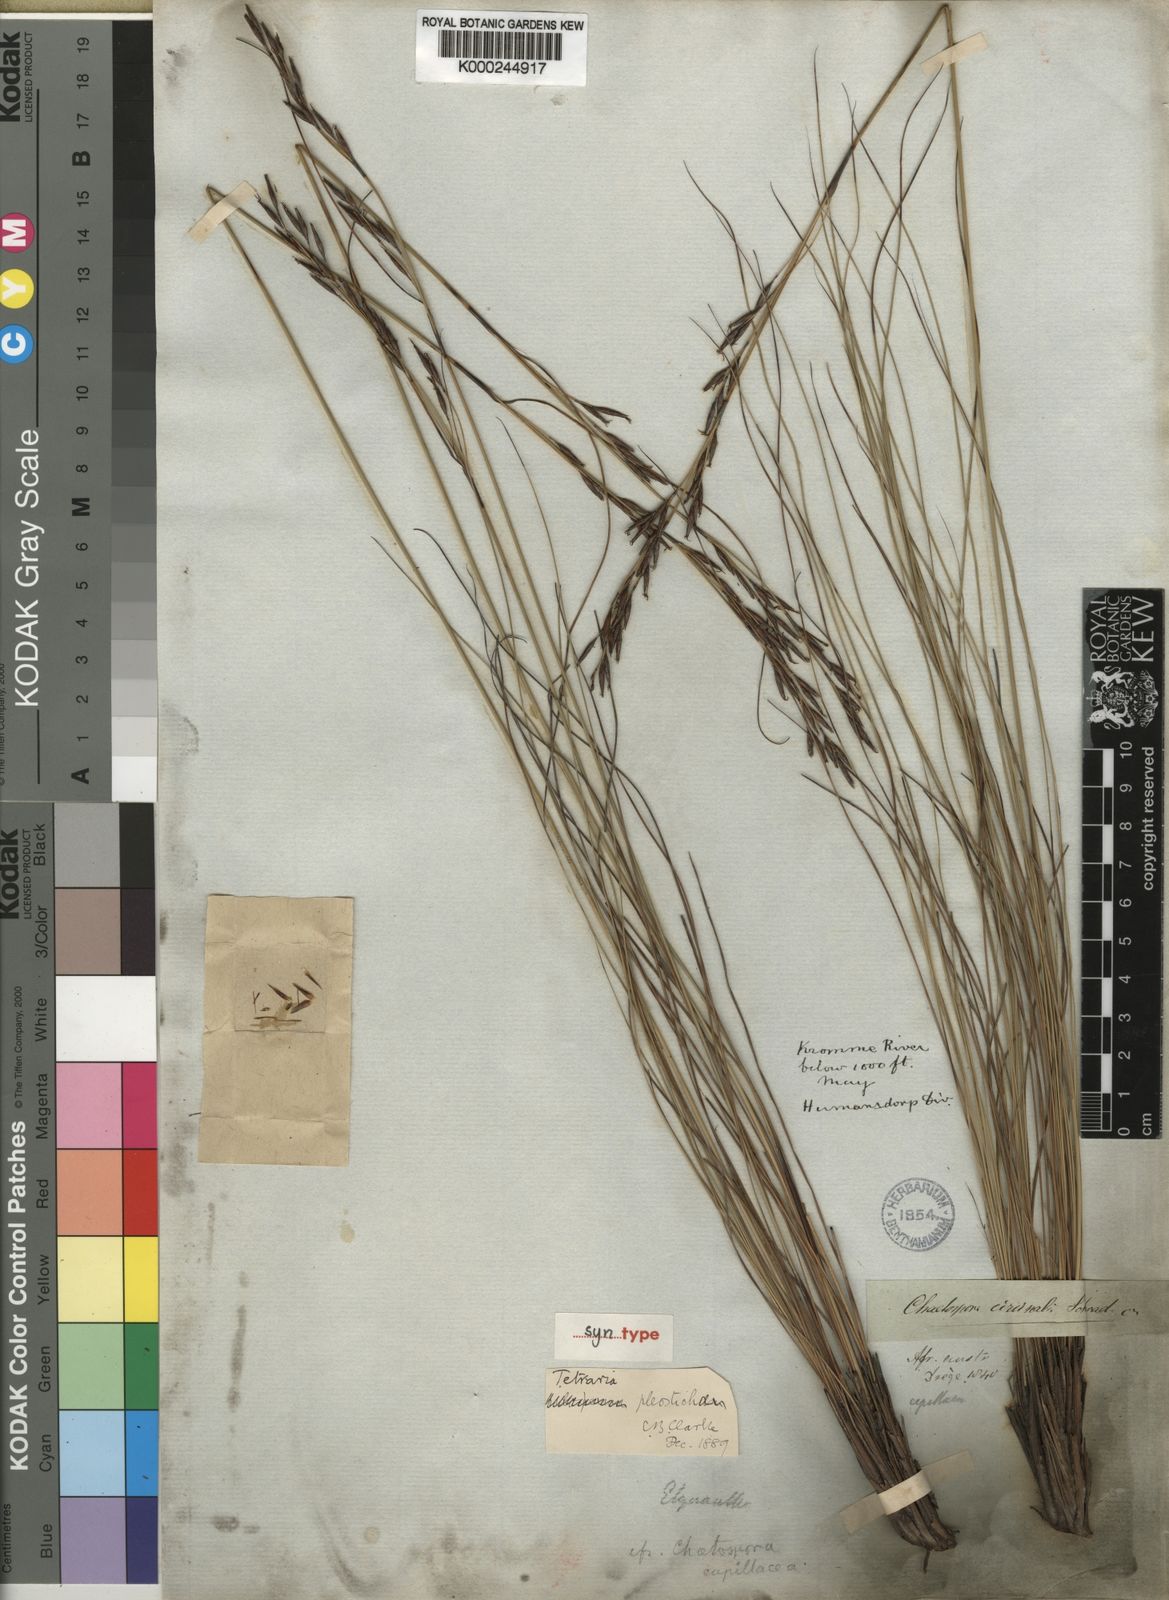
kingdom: Plantae
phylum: Tracheophyta
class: Liliopsida
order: Poales
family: Cyperaceae
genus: Tetraria
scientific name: Tetraria pleosticha
